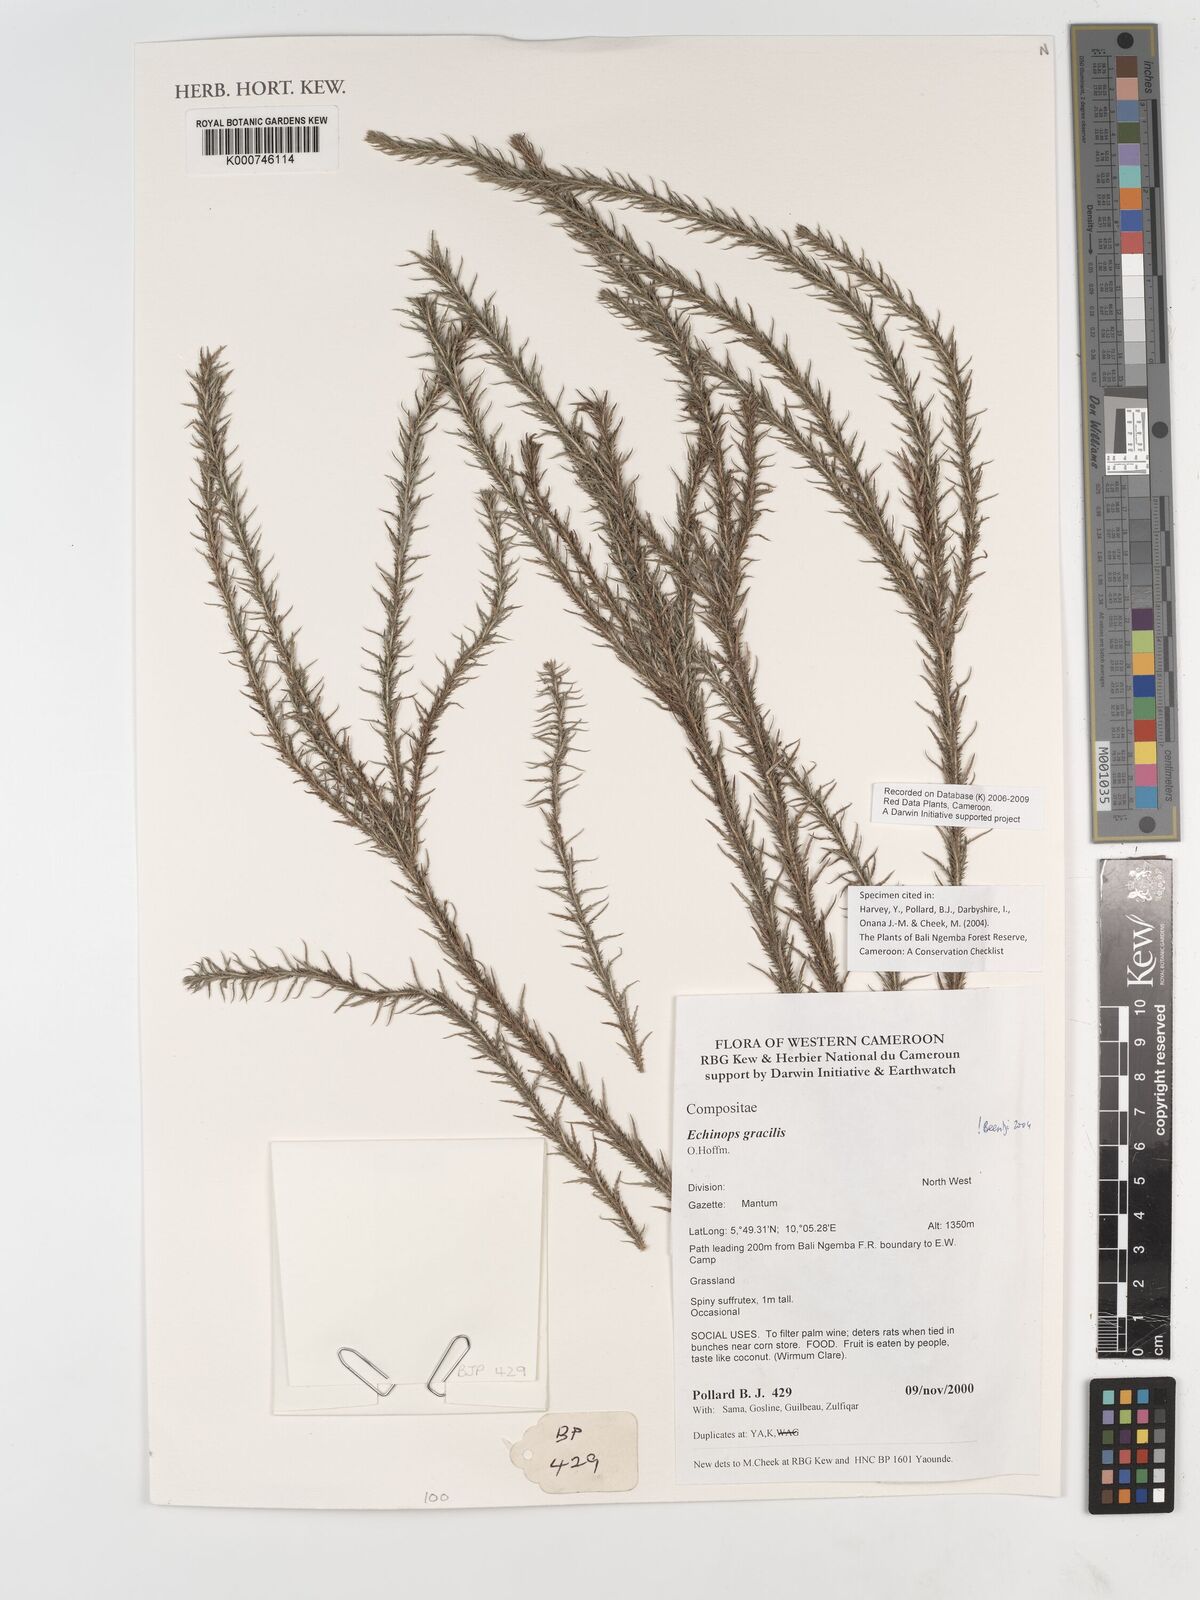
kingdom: Plantae
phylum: Tracheophyta
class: Magnoliopsida
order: Asterales
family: Asteraceae
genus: Echinops
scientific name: Echinops gracilis
